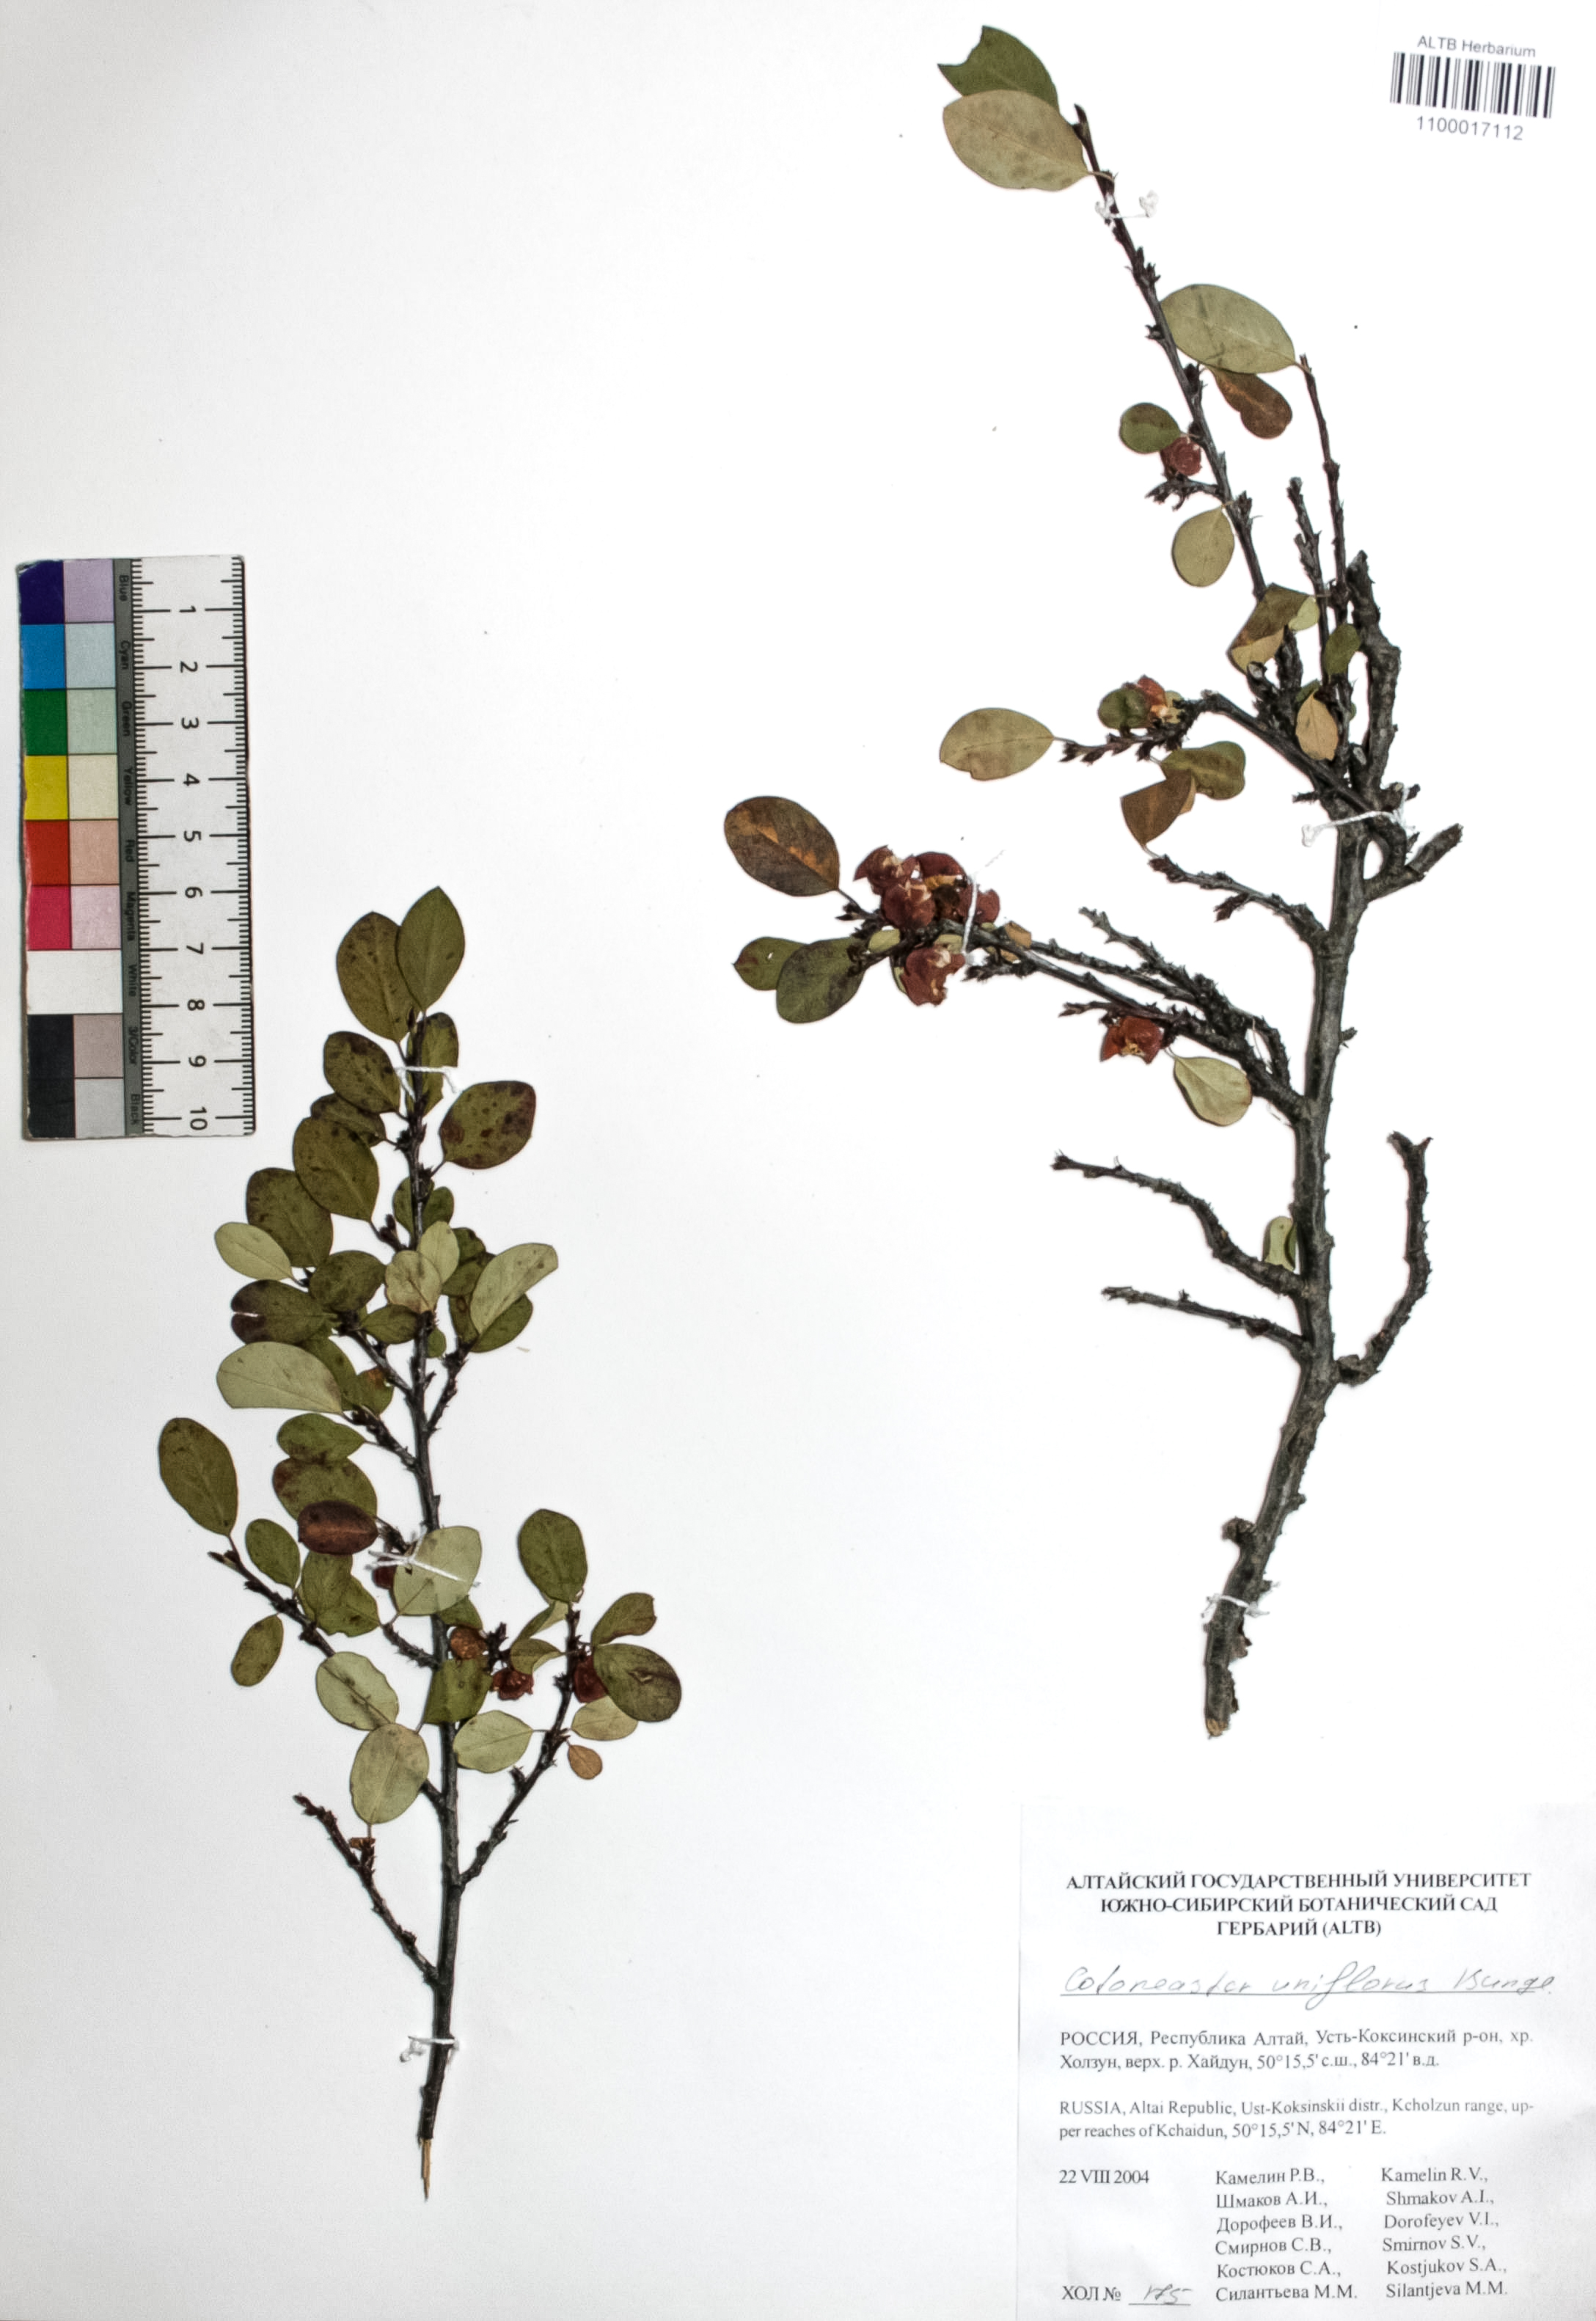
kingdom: Plantae
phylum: Tracheophyta
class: Magnoliopsida
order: Rosales
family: Rosaceae
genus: Cotoneaster
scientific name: Cotoneaster uniflorus
